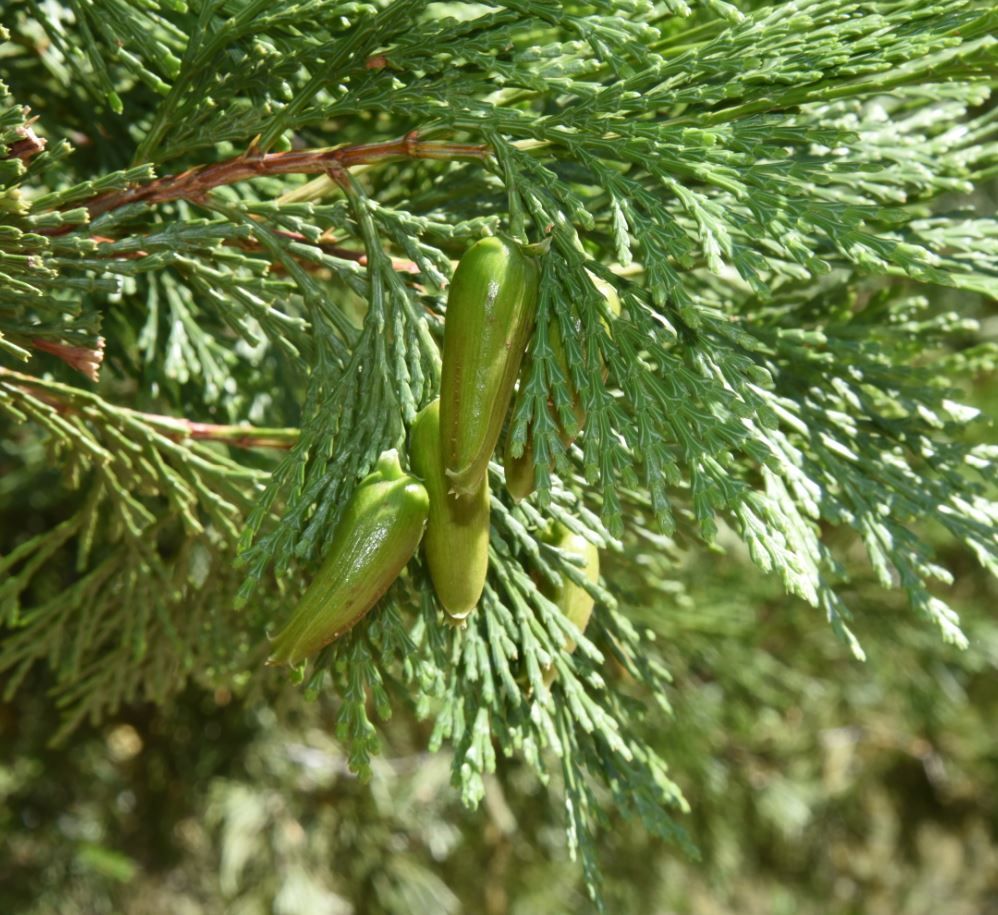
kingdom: Plantae
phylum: Tracheophyta
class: Pinopsida
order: Pinales
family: Cupressaceae
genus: Calocedrus
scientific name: Calocedrus decurrens
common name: Incense cedar
